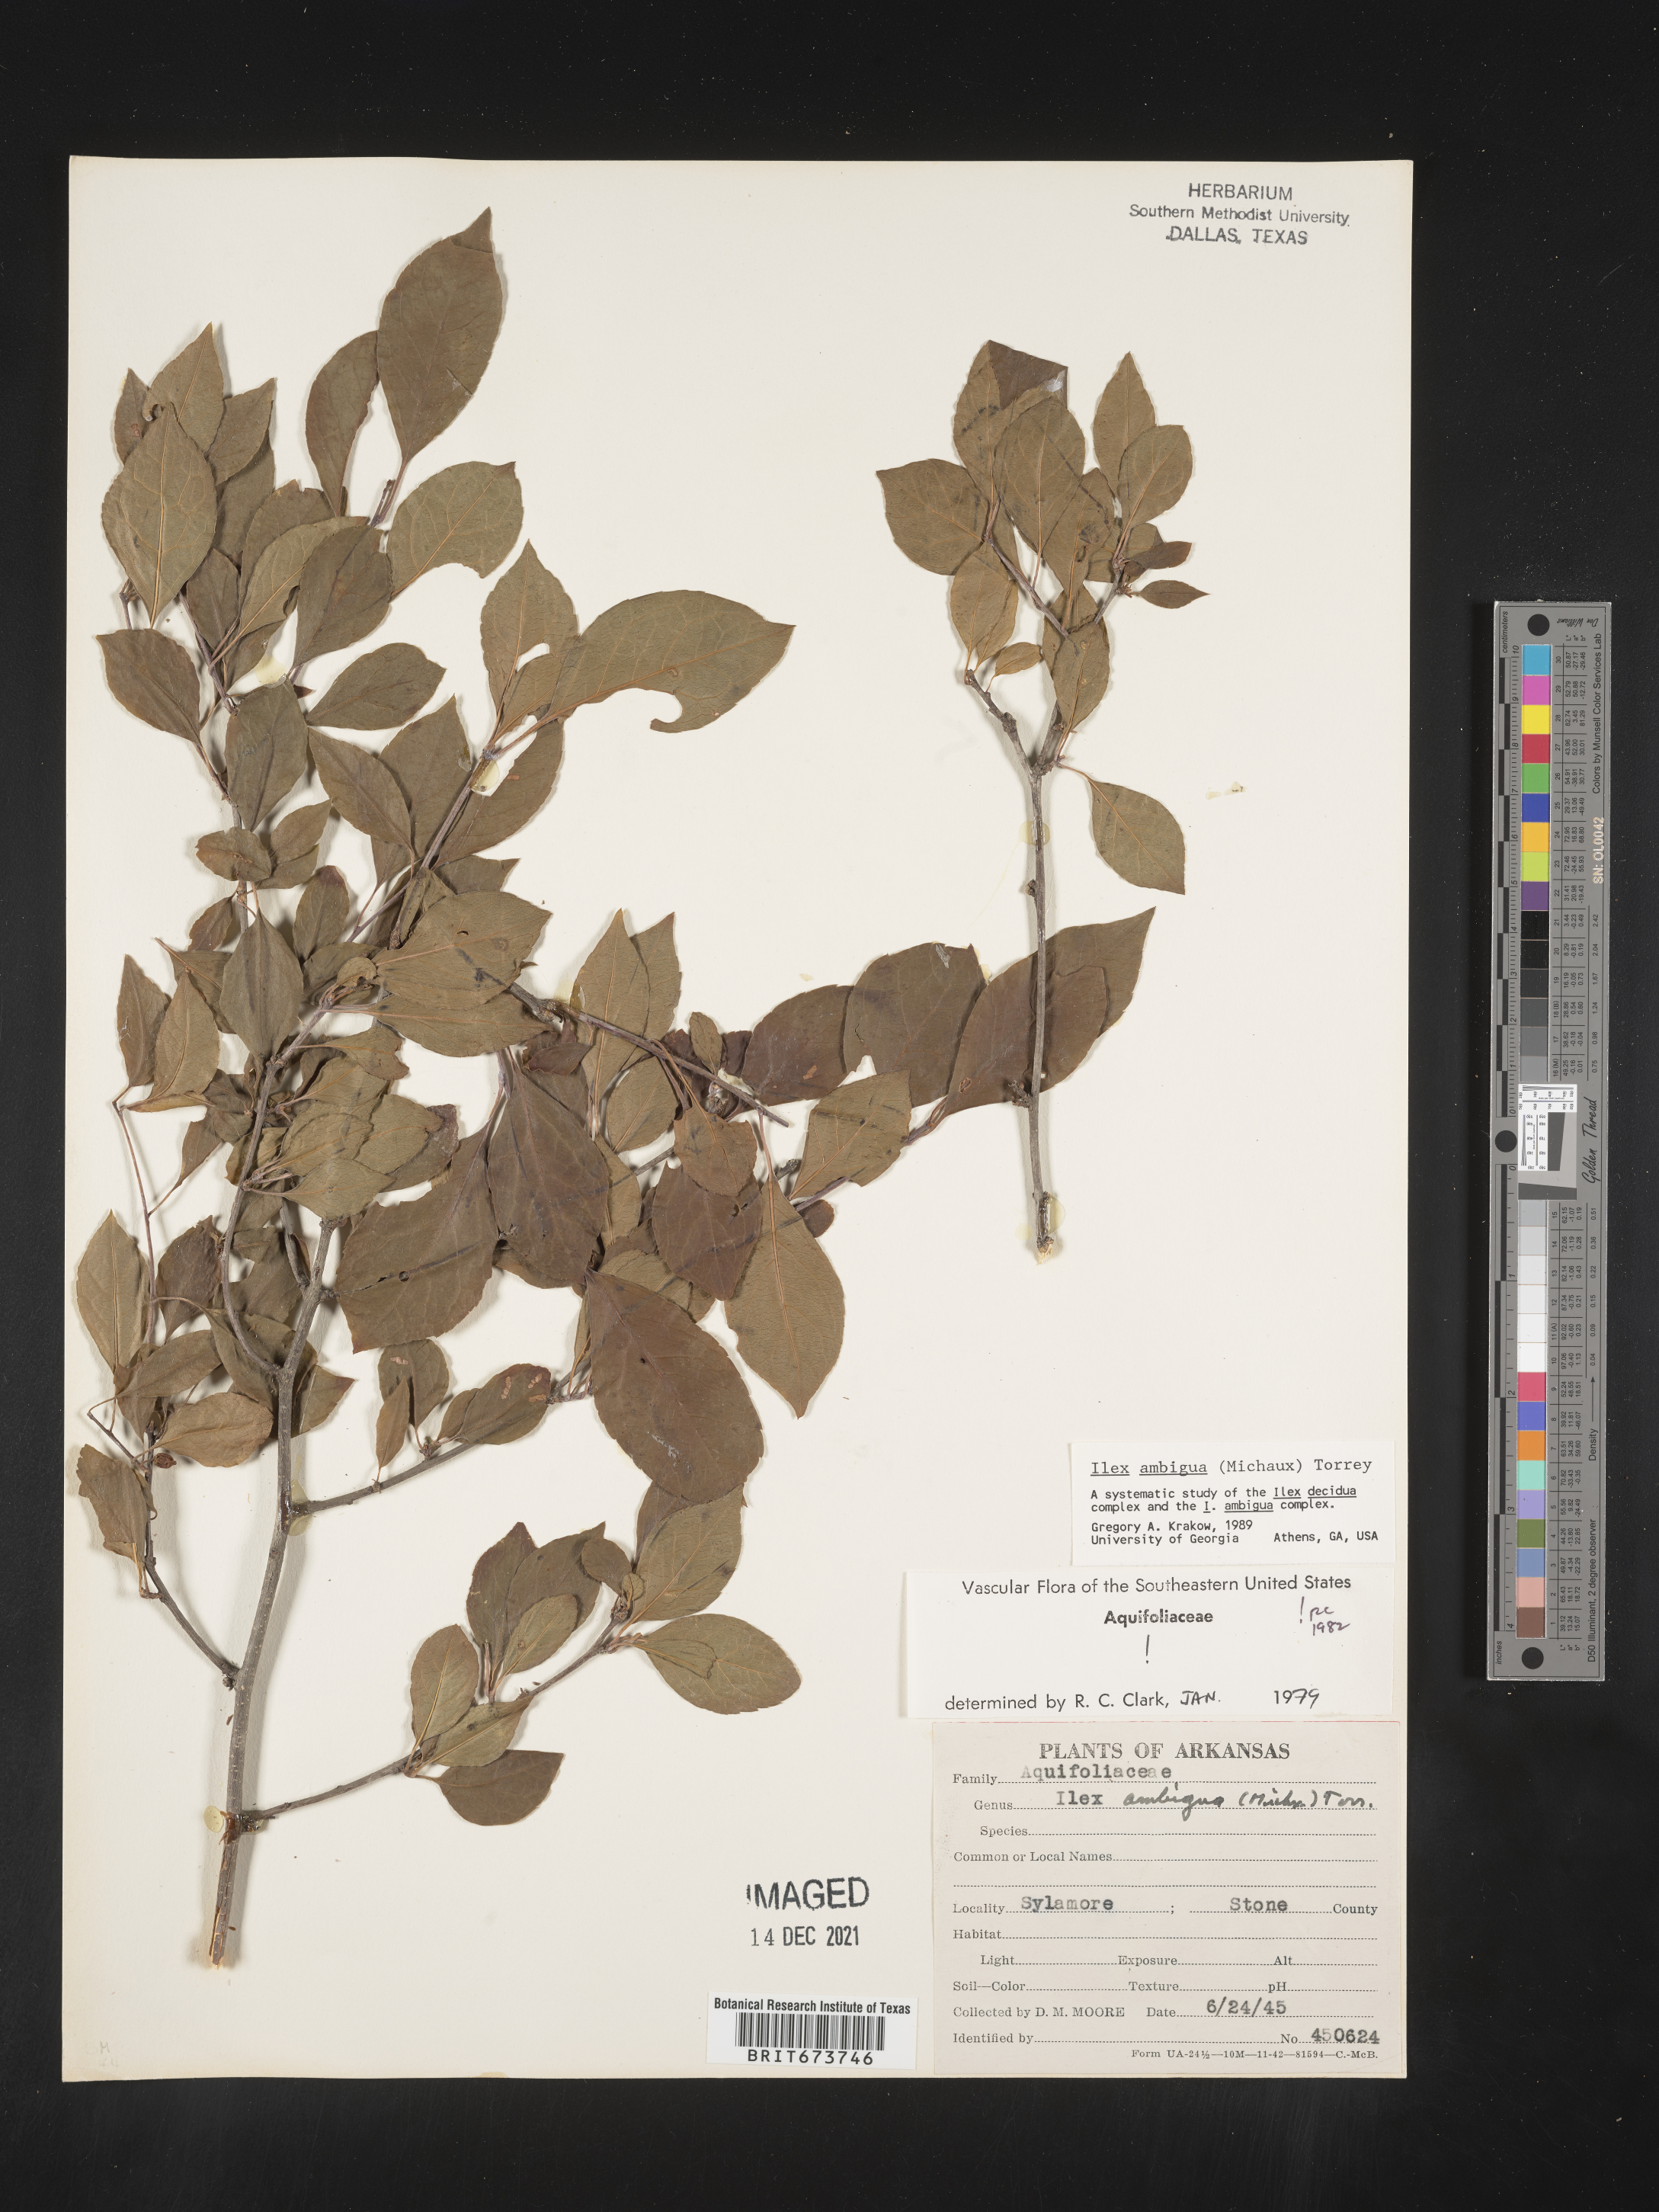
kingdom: Plantae
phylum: Tracheophyta
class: Magnoliopsida
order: Aquifoliales
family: Aquifoliaceae
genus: Ilex
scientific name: Ilex ambigua
